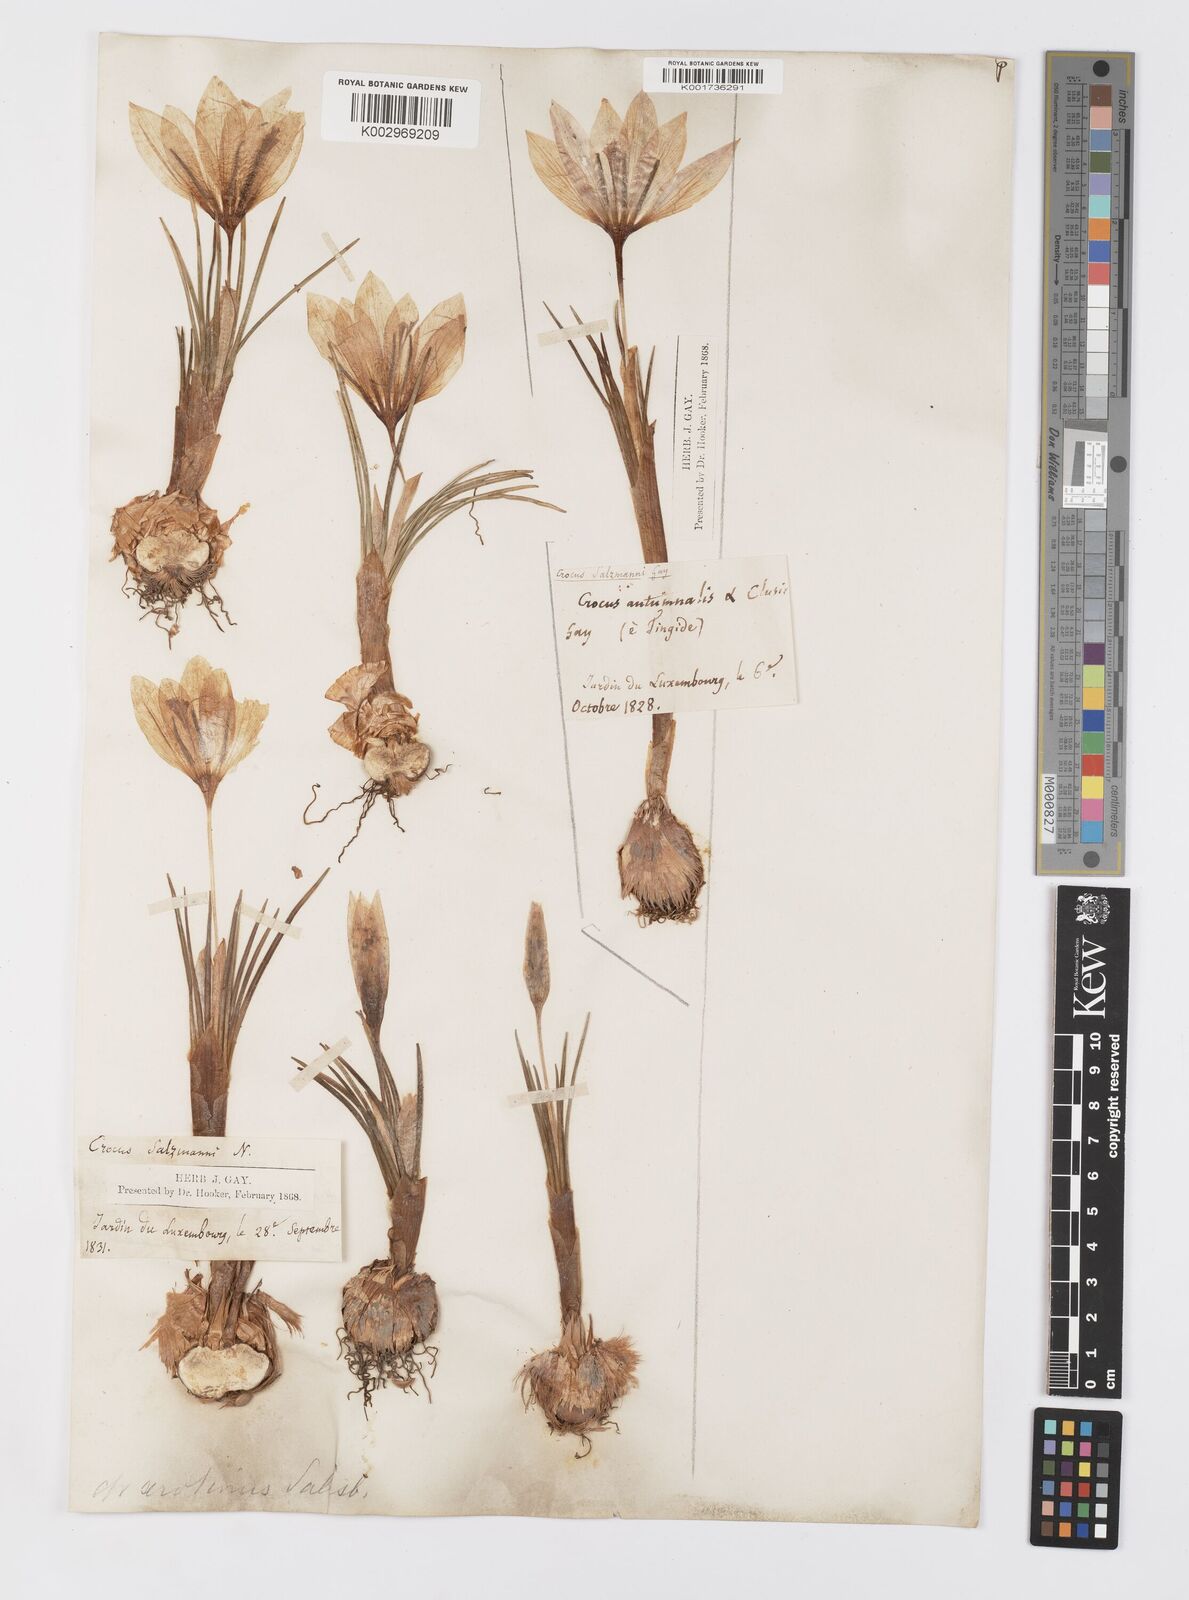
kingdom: Plantae
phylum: Tracheophyta
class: Liliopsida
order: Asparagales
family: Iridaceae
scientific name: Iridaceae
